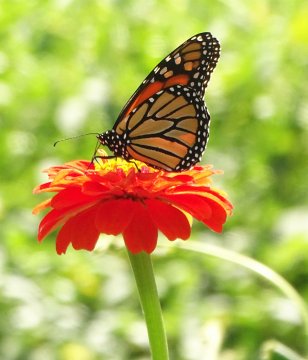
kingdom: Animalia
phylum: Arthropoda
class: Insecta
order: Lepidoptera
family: Nymphalidae
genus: Danaus
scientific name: Danaus plexippus
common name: Monarch
